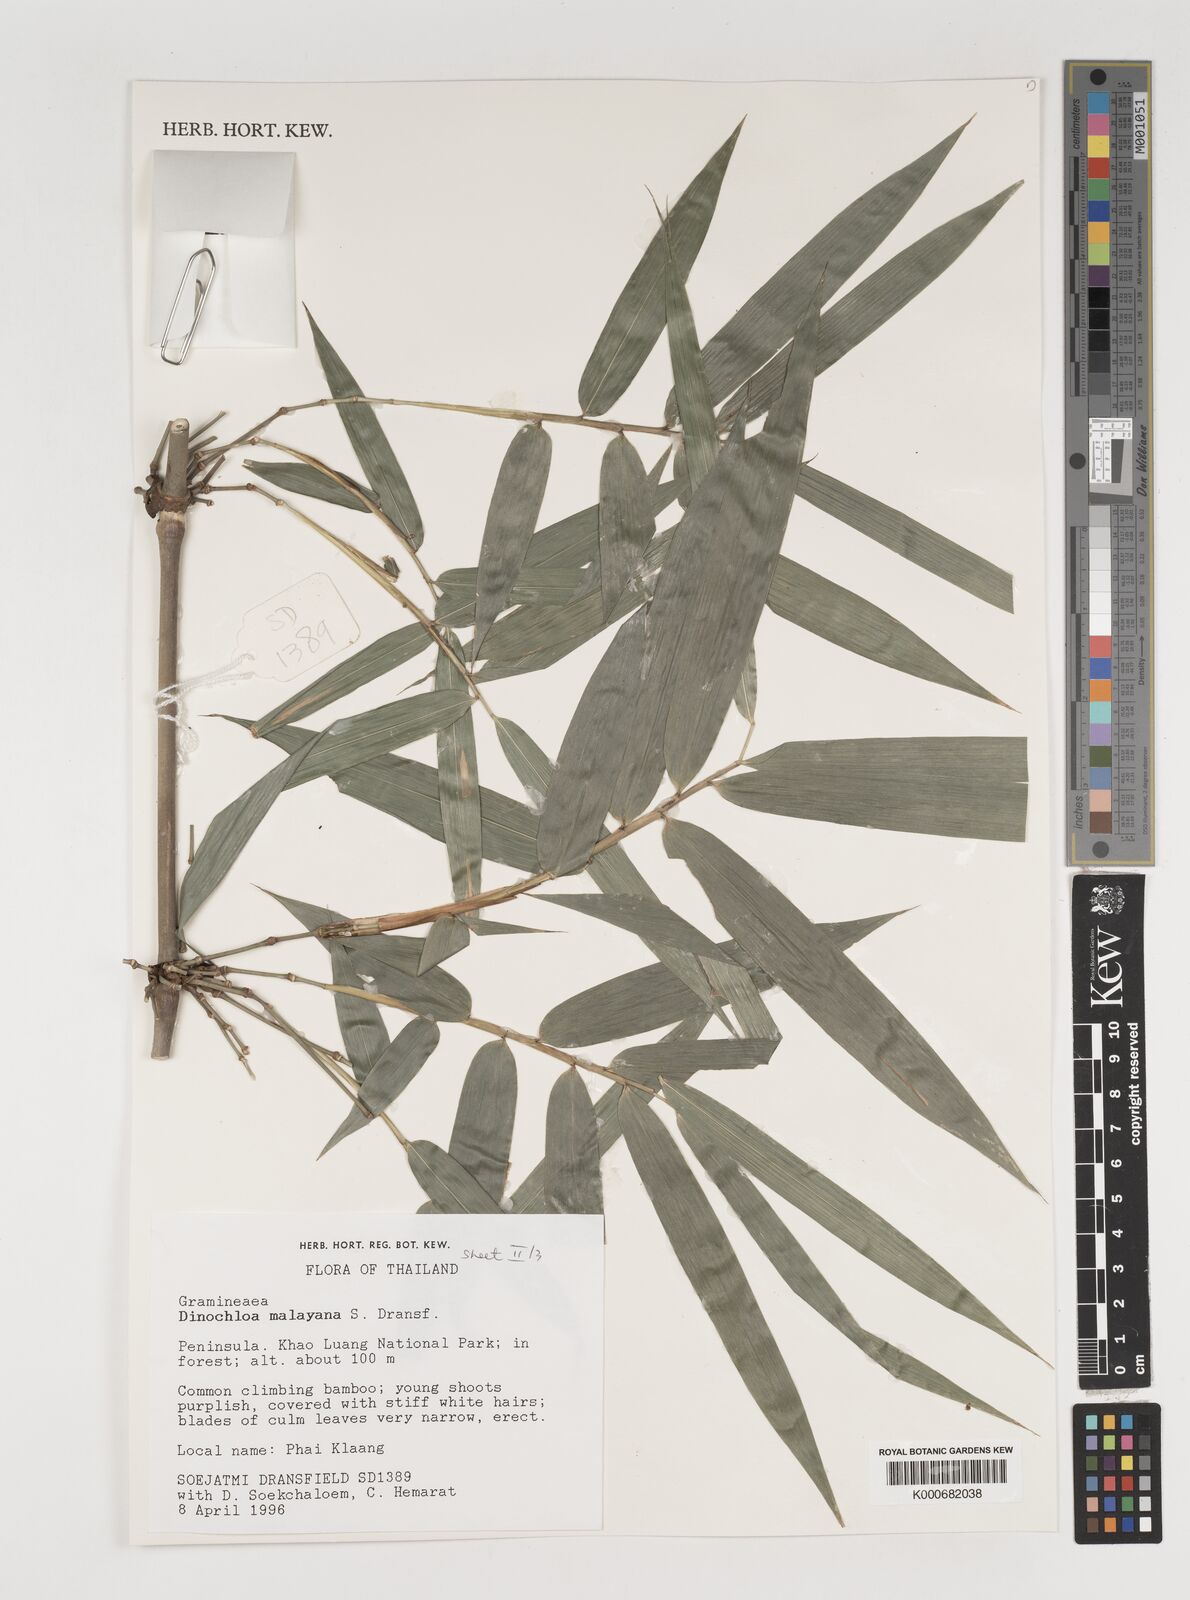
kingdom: Plantae
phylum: Tracheophyta
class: Liliopsida
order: Poales
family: Poaceae
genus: Dinochloa
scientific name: Dinochloa malayana
